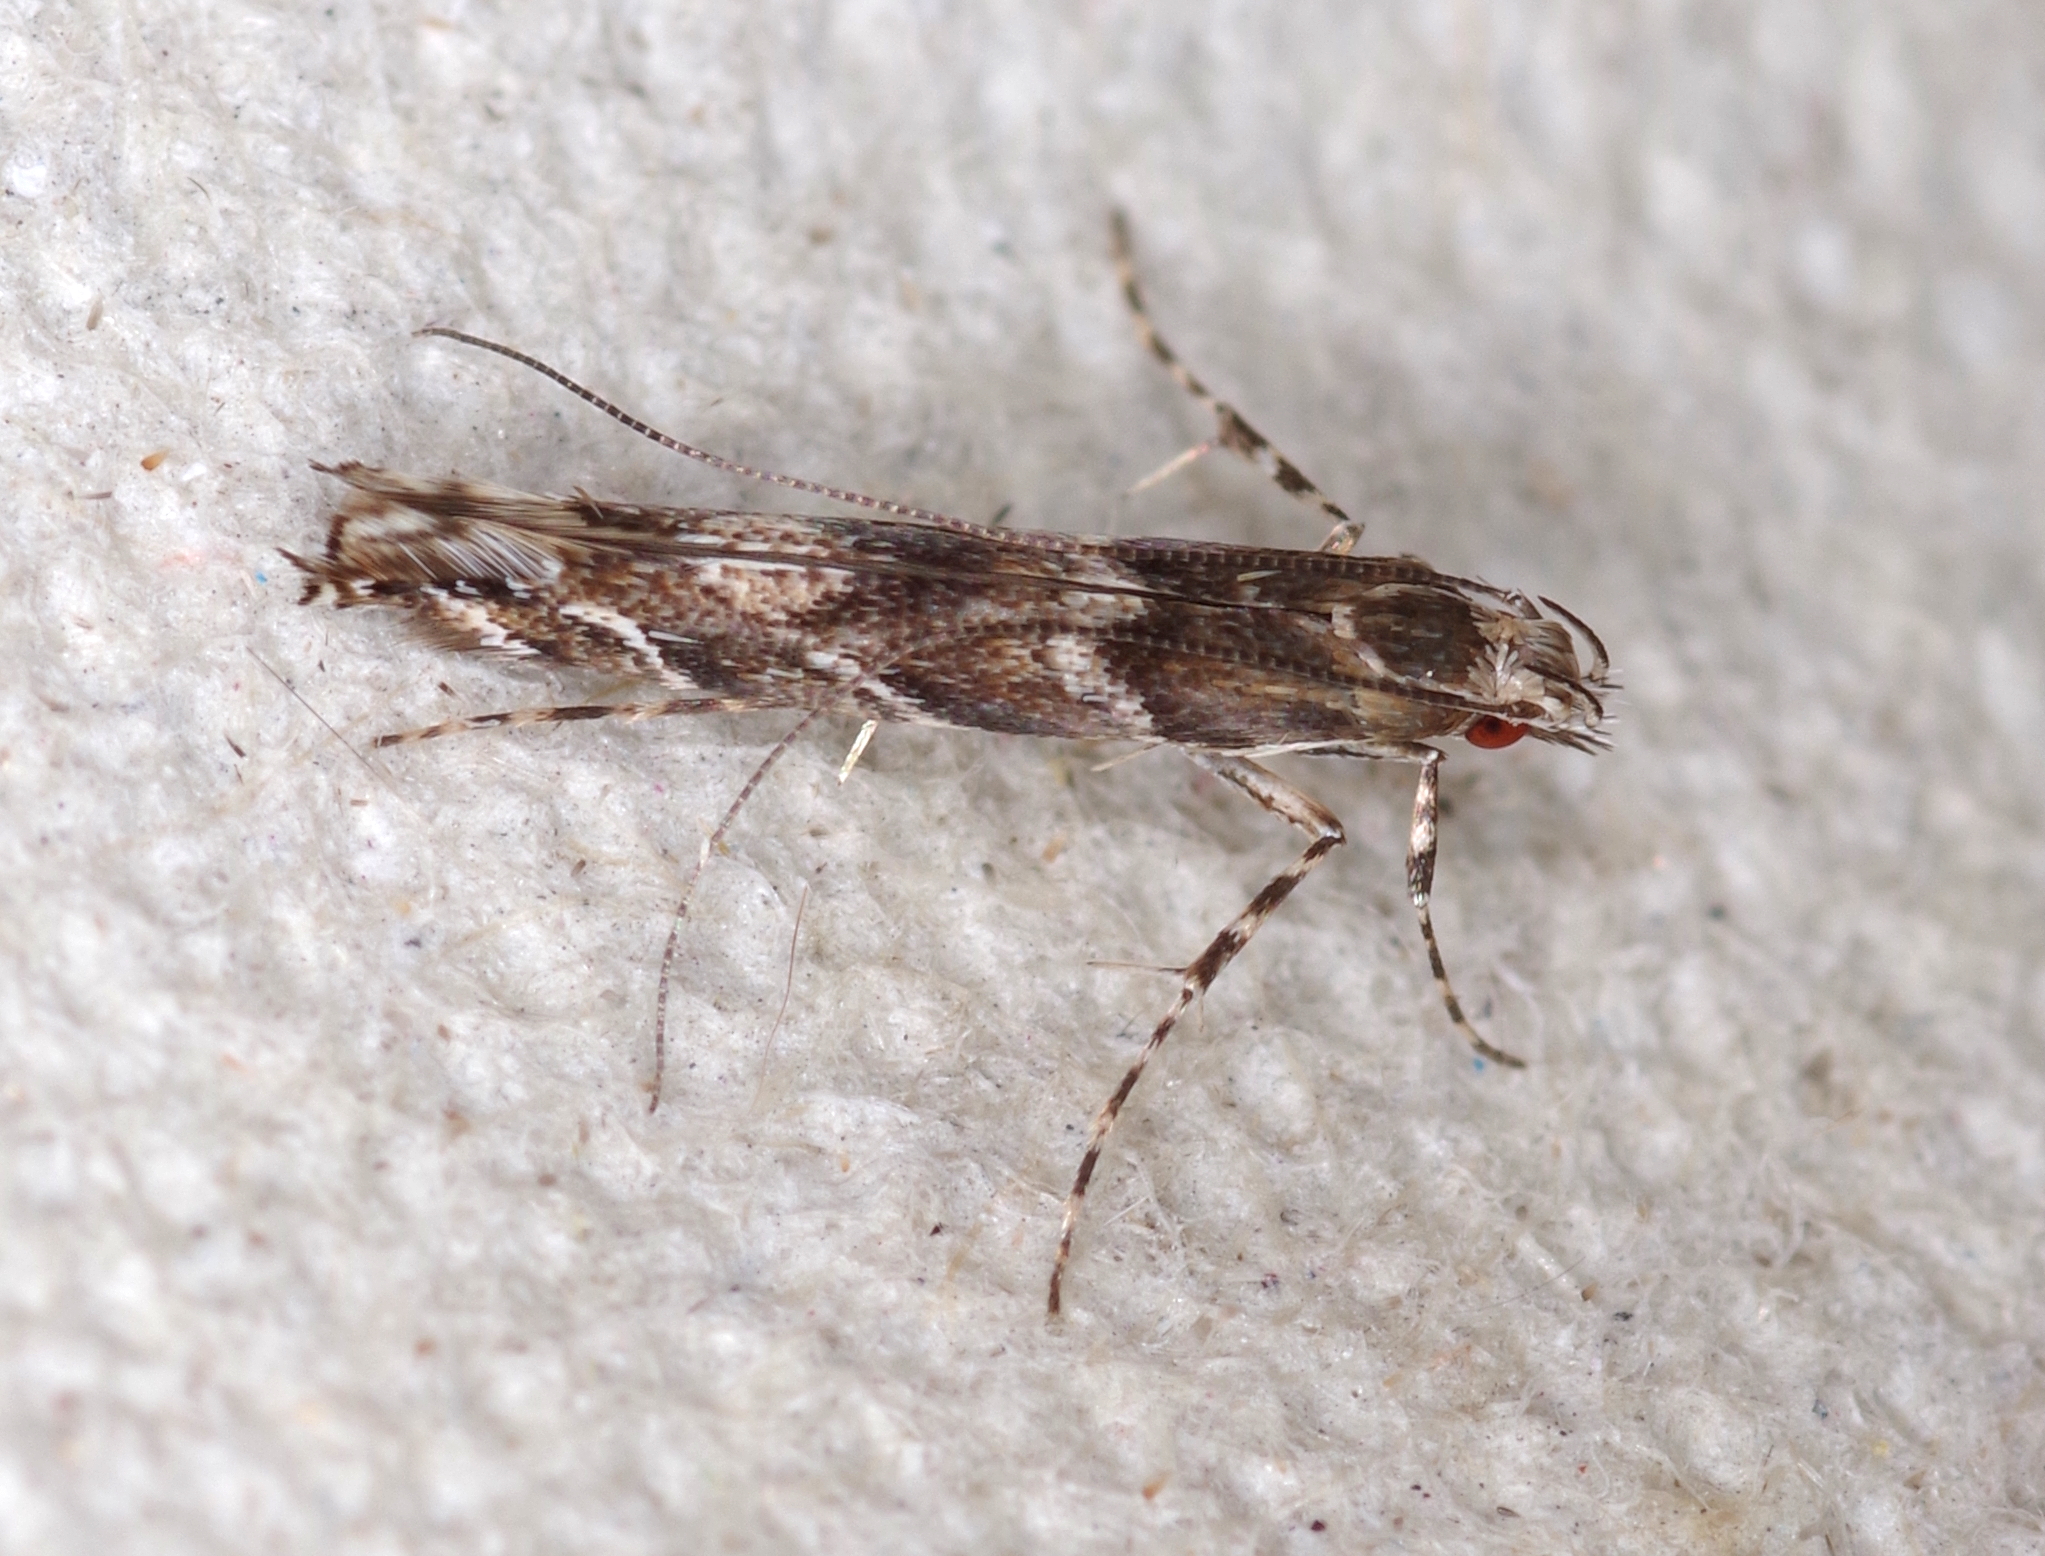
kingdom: Animalia
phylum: Arthropoda
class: Insecta
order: Lepidoptera
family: Gracillariidae
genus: Acrocercops
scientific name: Acrocercops brongniardella
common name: Brown oak slender
